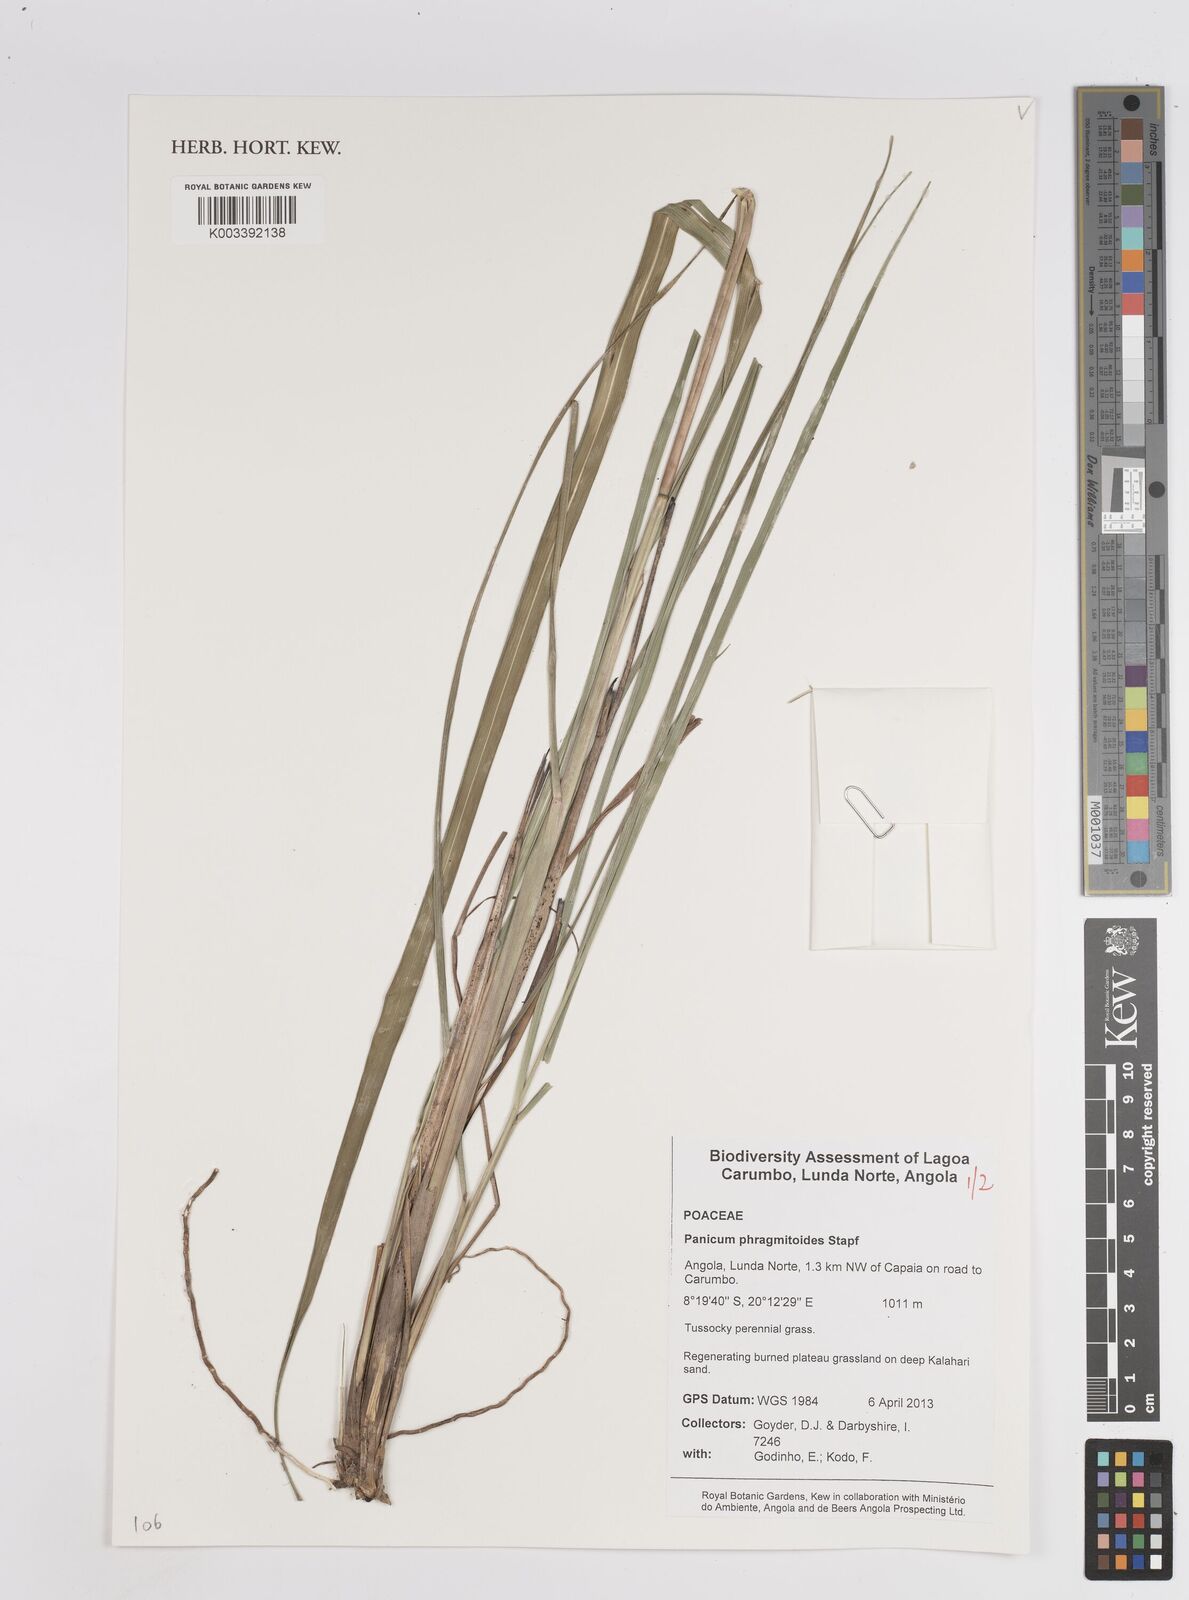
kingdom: Plantae
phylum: Tracheophyta
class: Liliopsida
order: Poales
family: Poaceae
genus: Panicum
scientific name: Panicum phragmitoides
